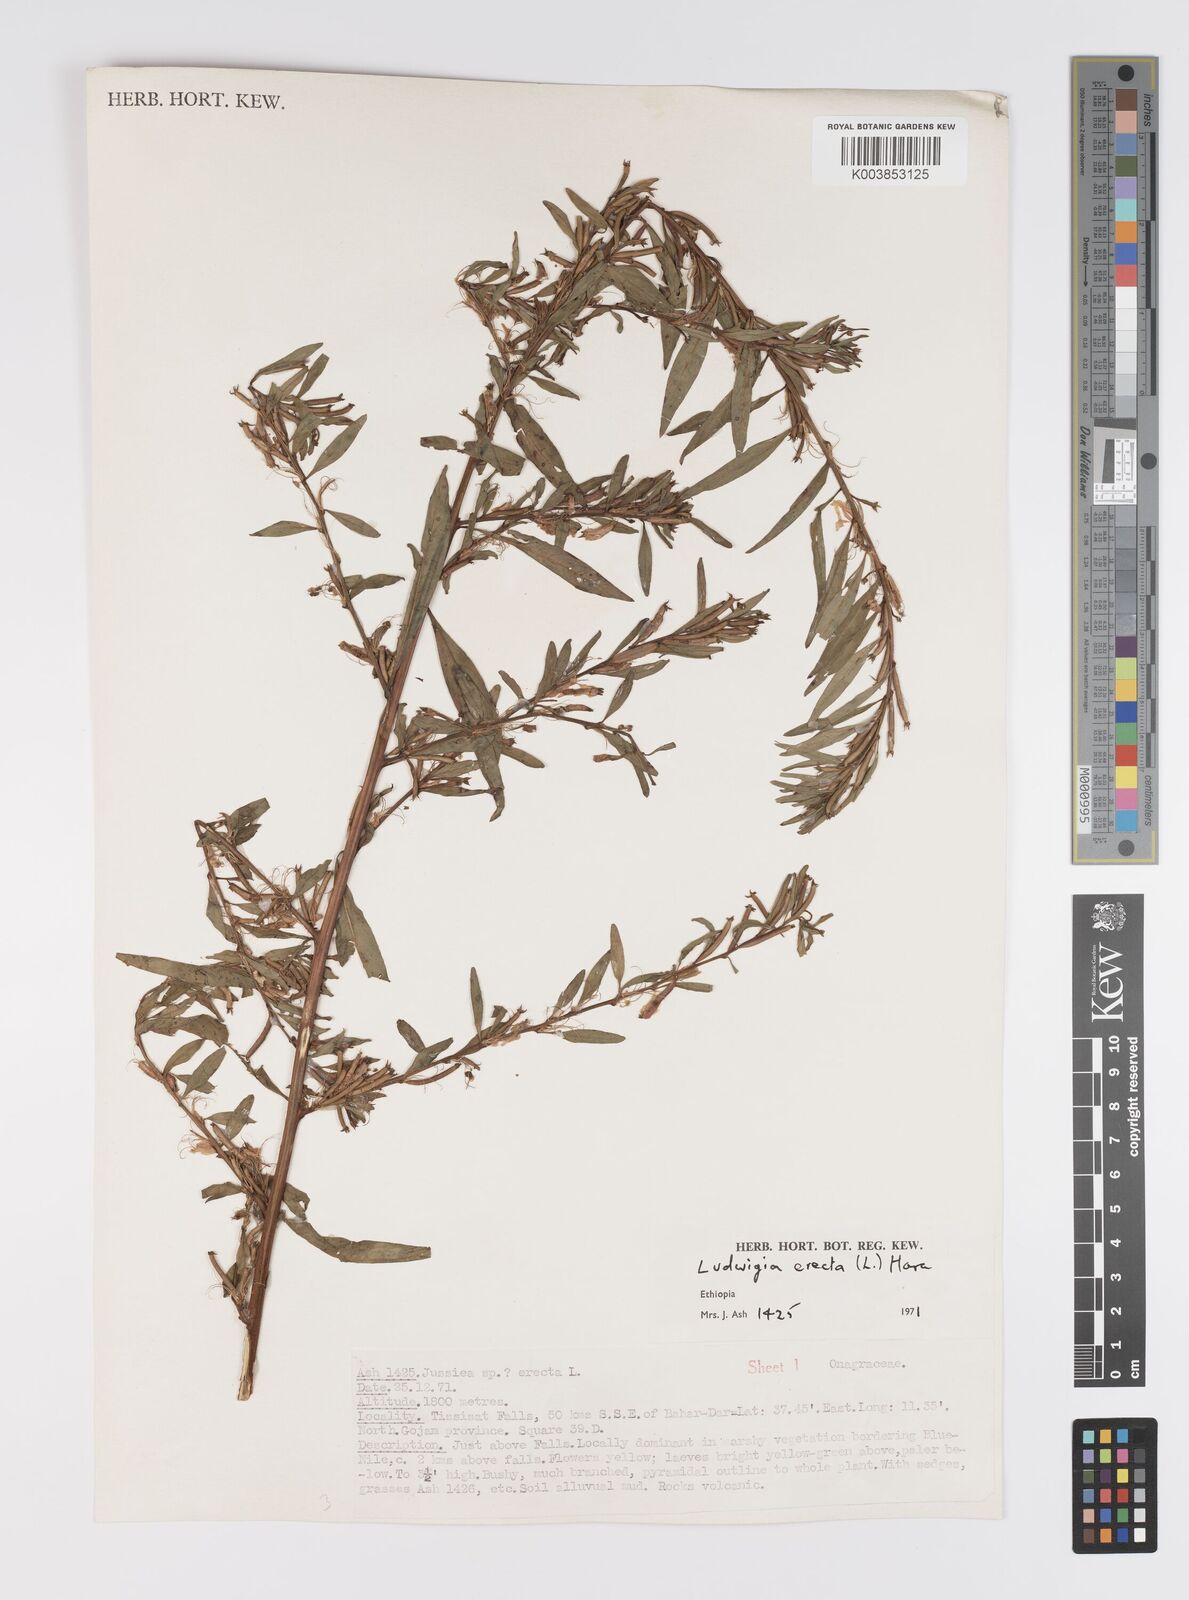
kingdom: Plantae
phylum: Tracheophyta
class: Magnoliopsida
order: Myrtales
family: Onagraceae
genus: Ludwigia
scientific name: Ludwigia erecta
